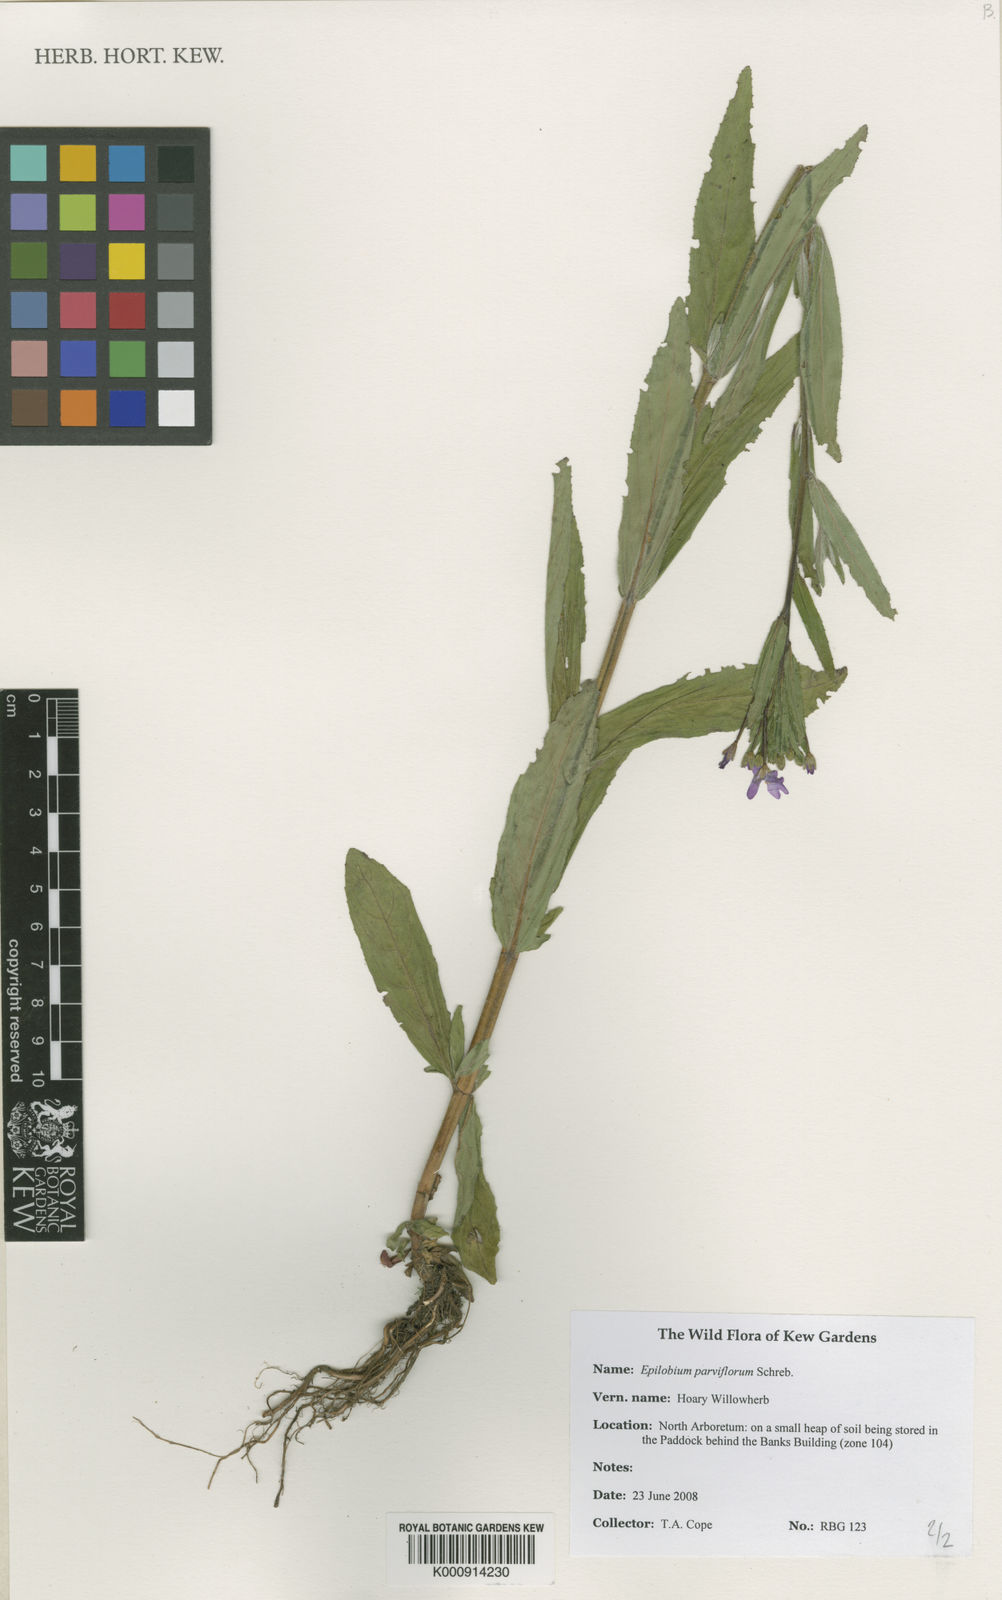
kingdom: Plantae
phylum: Tracheophyta
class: Magnoliopsida
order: Myrtales
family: Onagraceae
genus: Epilobium
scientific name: Epilobium parviflorum
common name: Hoary willowherb
